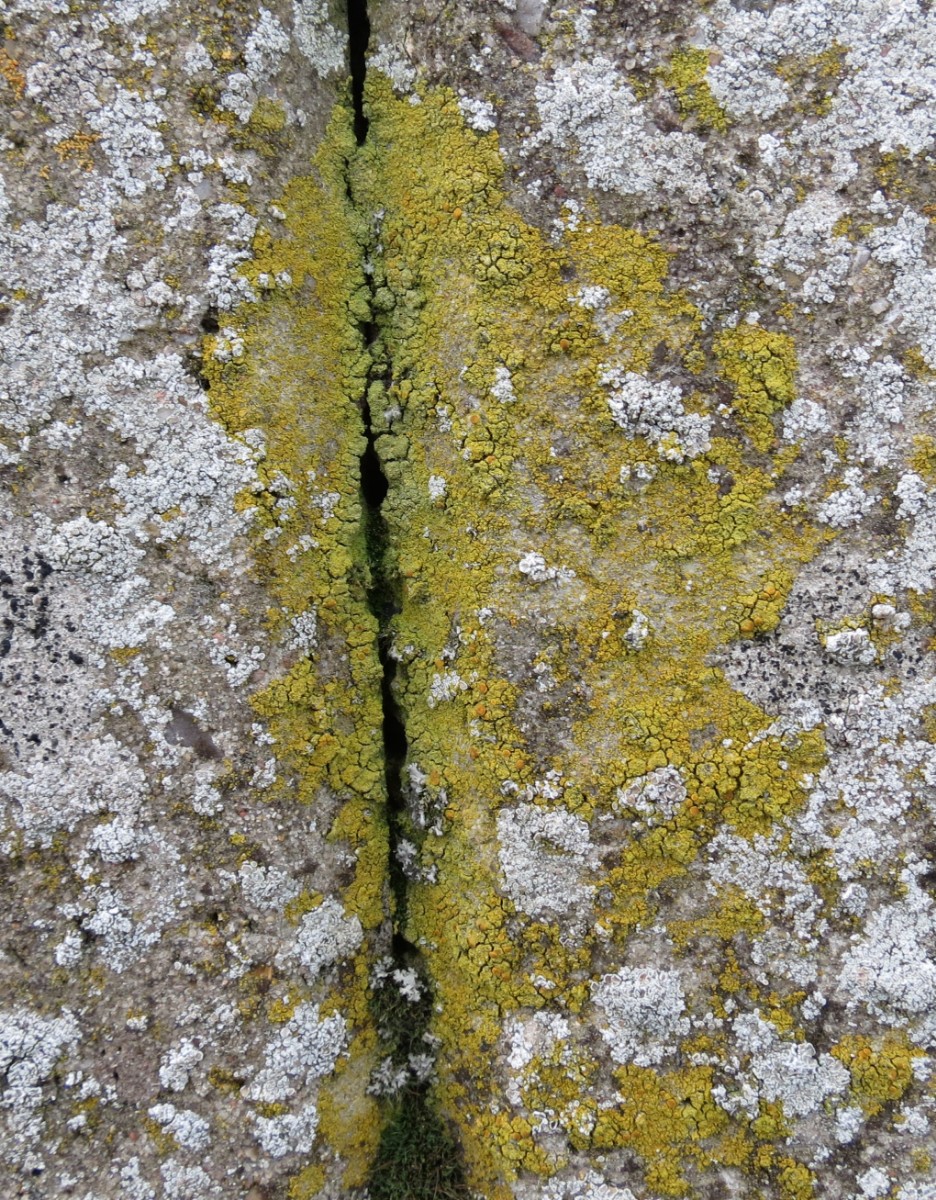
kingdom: Fungi
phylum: Ascomycota
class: Candelariomycetes
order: Candelariales
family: Candelariaceae
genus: Candelariella
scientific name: Candelariella vitellina
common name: almindelig æggeblommelav
